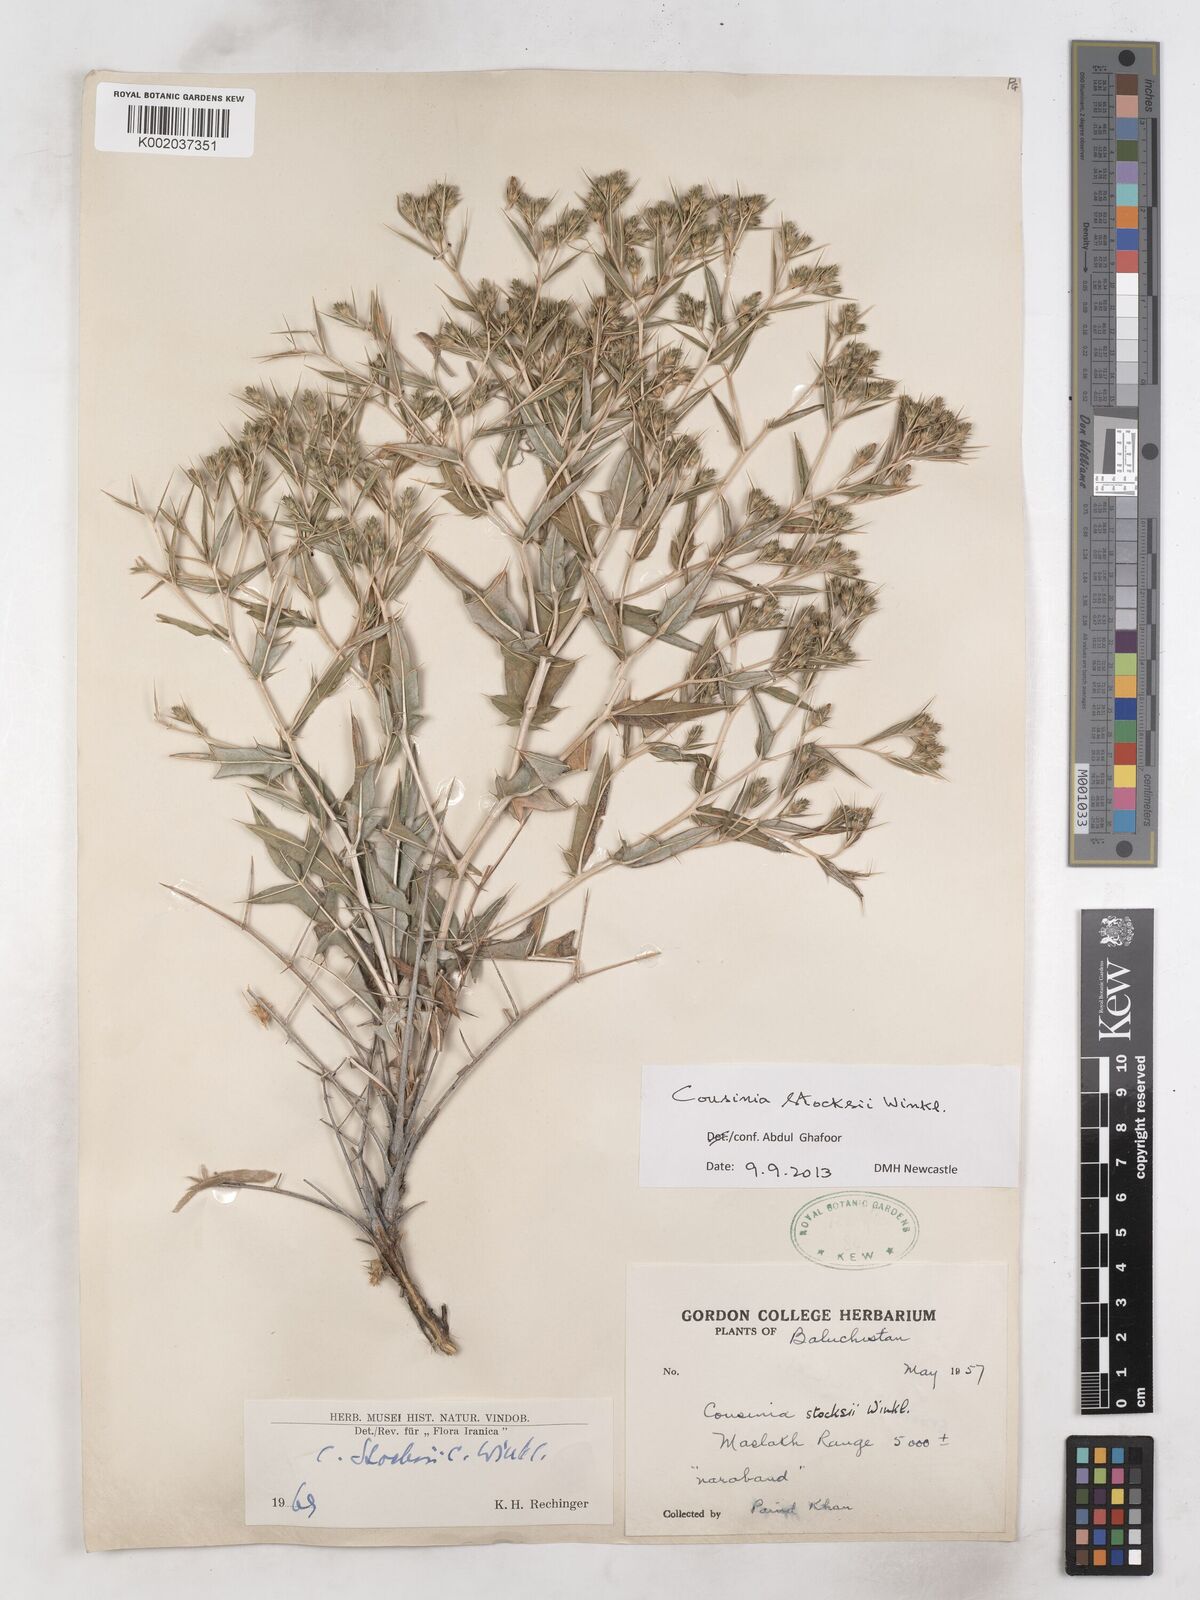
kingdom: Plantae
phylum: Tracheophyta
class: Magnoliopsida
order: Asterales
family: Asteraceae
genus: Cousinia
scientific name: Cousinia stocksii
